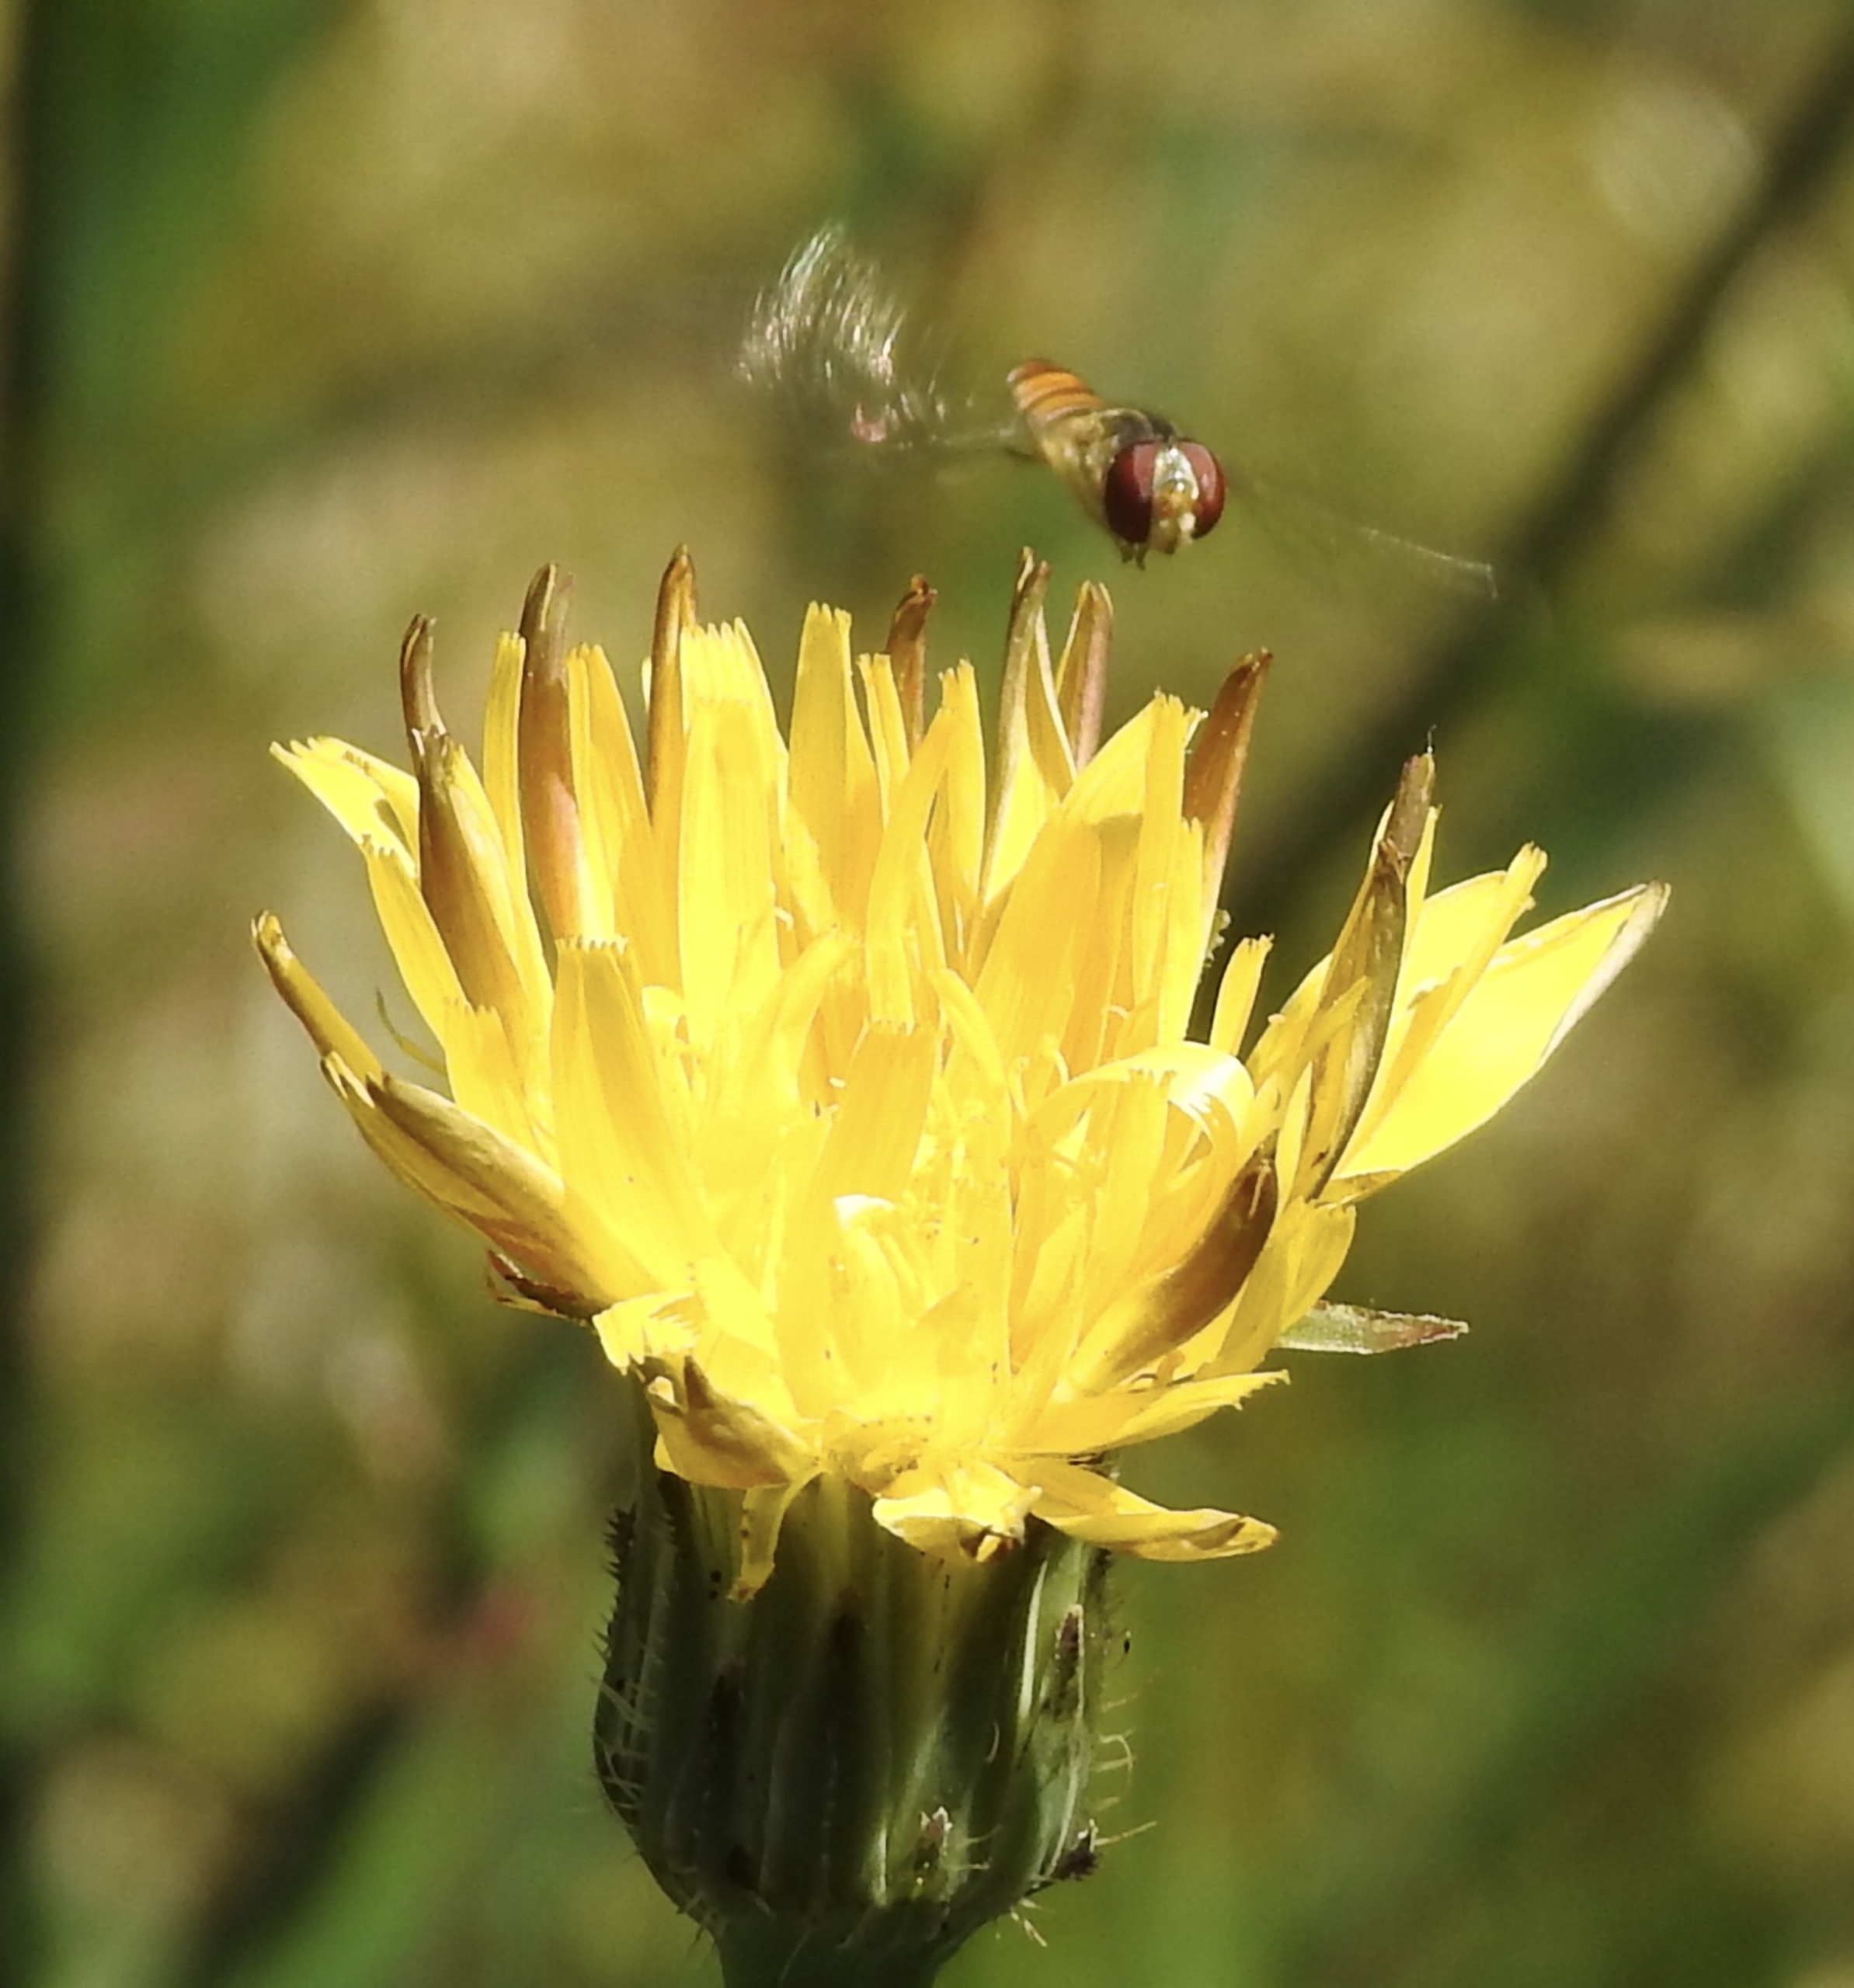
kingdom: Animalia
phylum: Arthropoda
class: Insecta
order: Diptera
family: Syrphidae
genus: Episyrphus
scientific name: Episyrphus balteatus
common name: Dobbeltbåndet svirreflue
